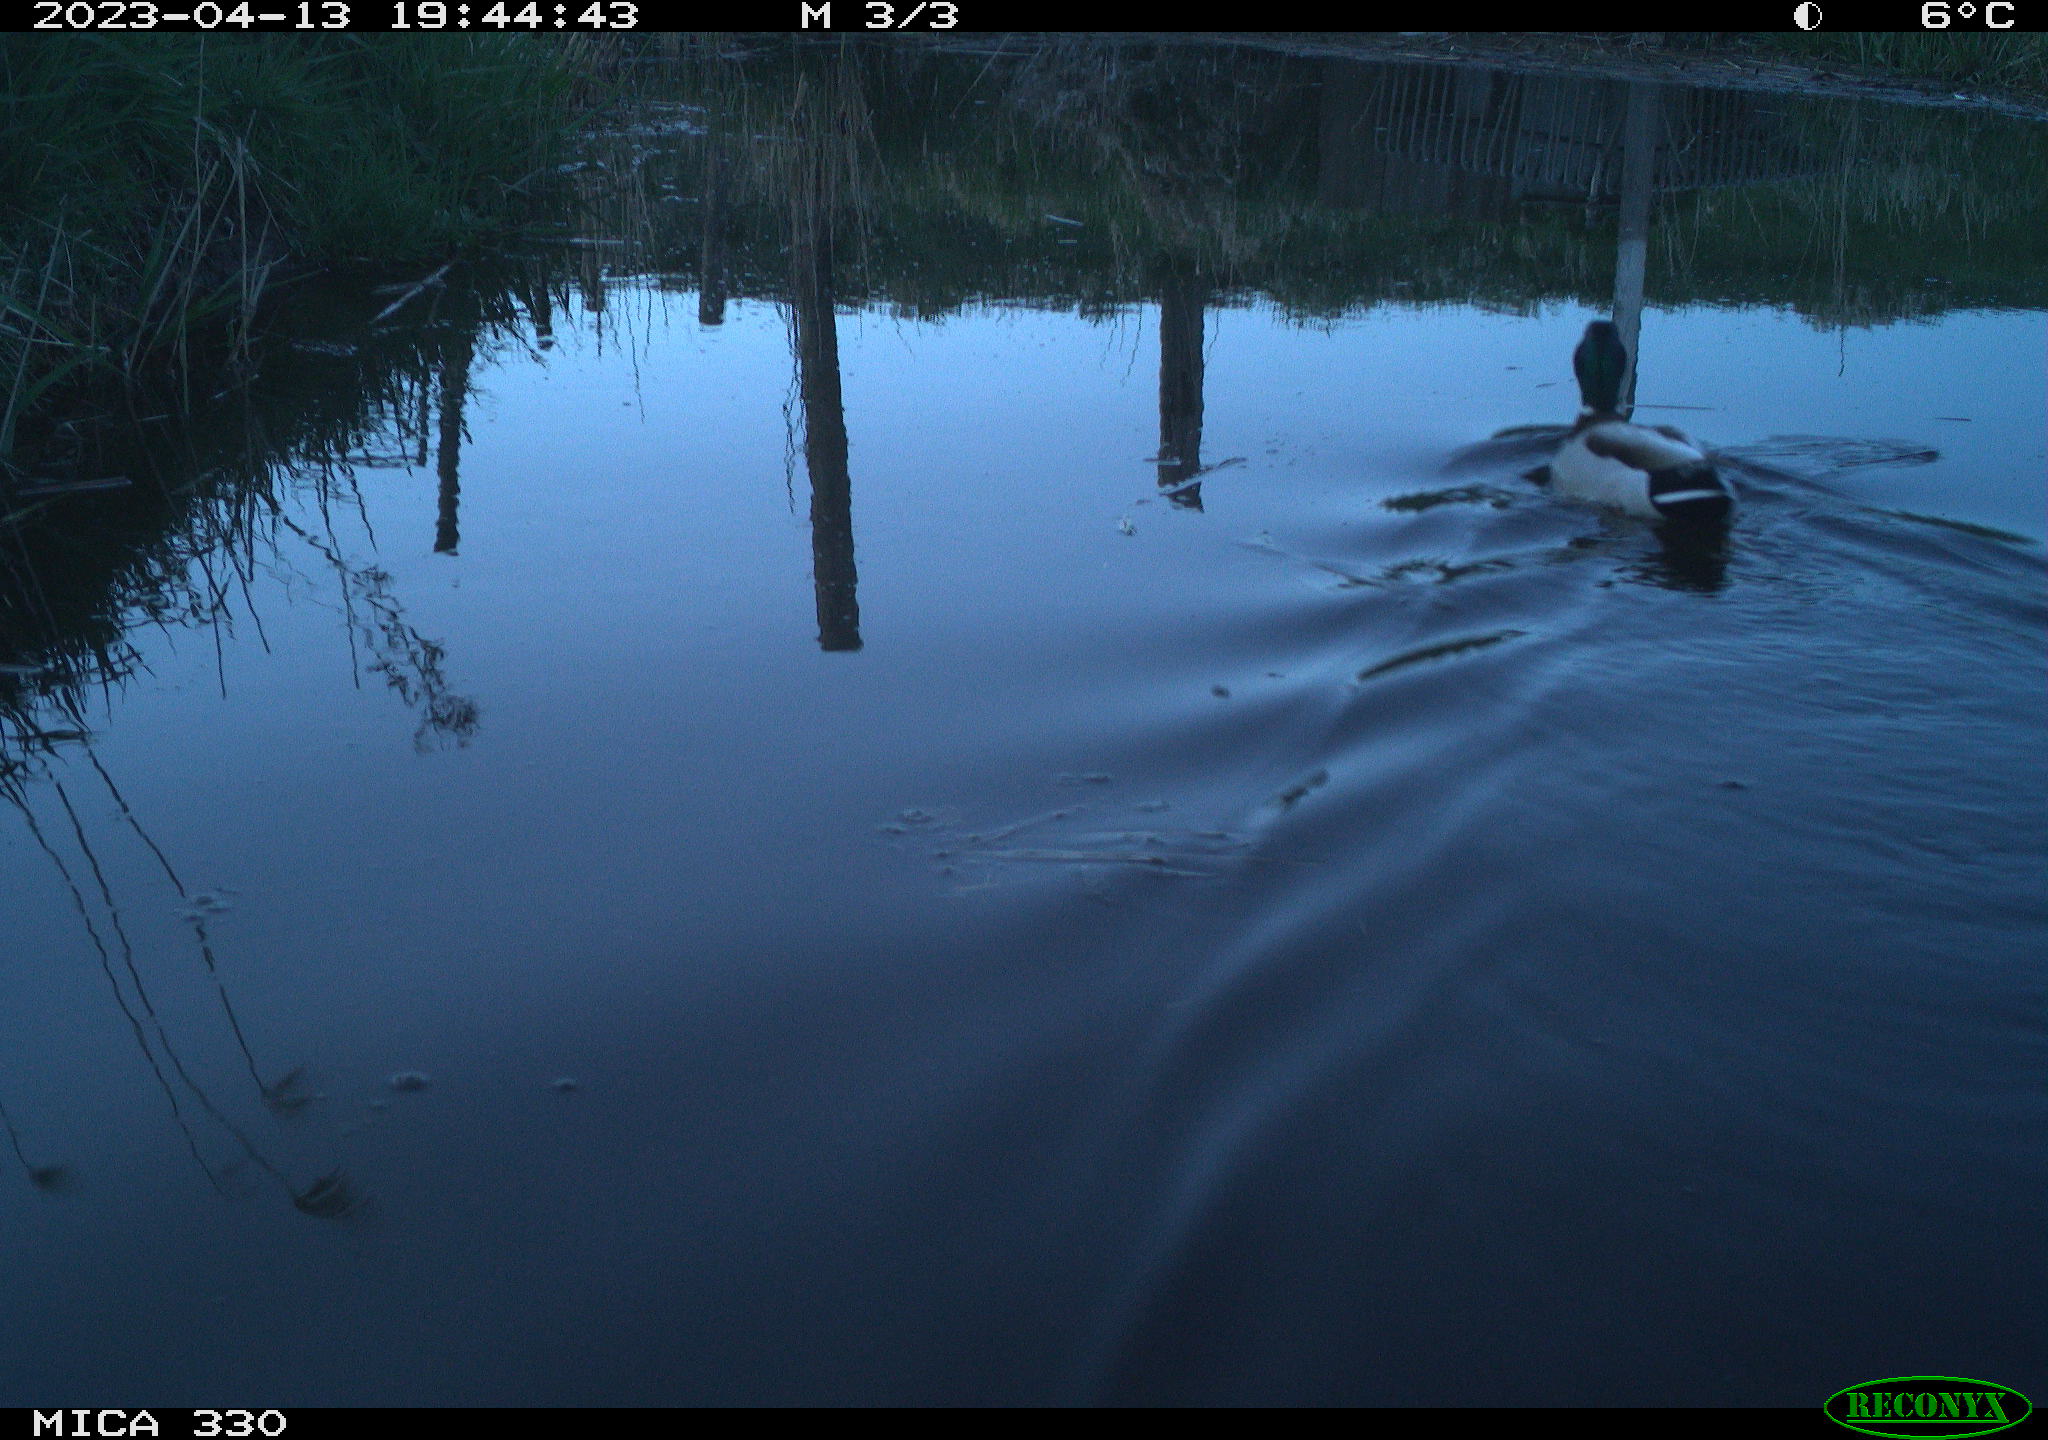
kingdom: Animalia
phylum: Chordata
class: Aves
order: Anseriformes
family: Anatidae
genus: Anas
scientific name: Anas
